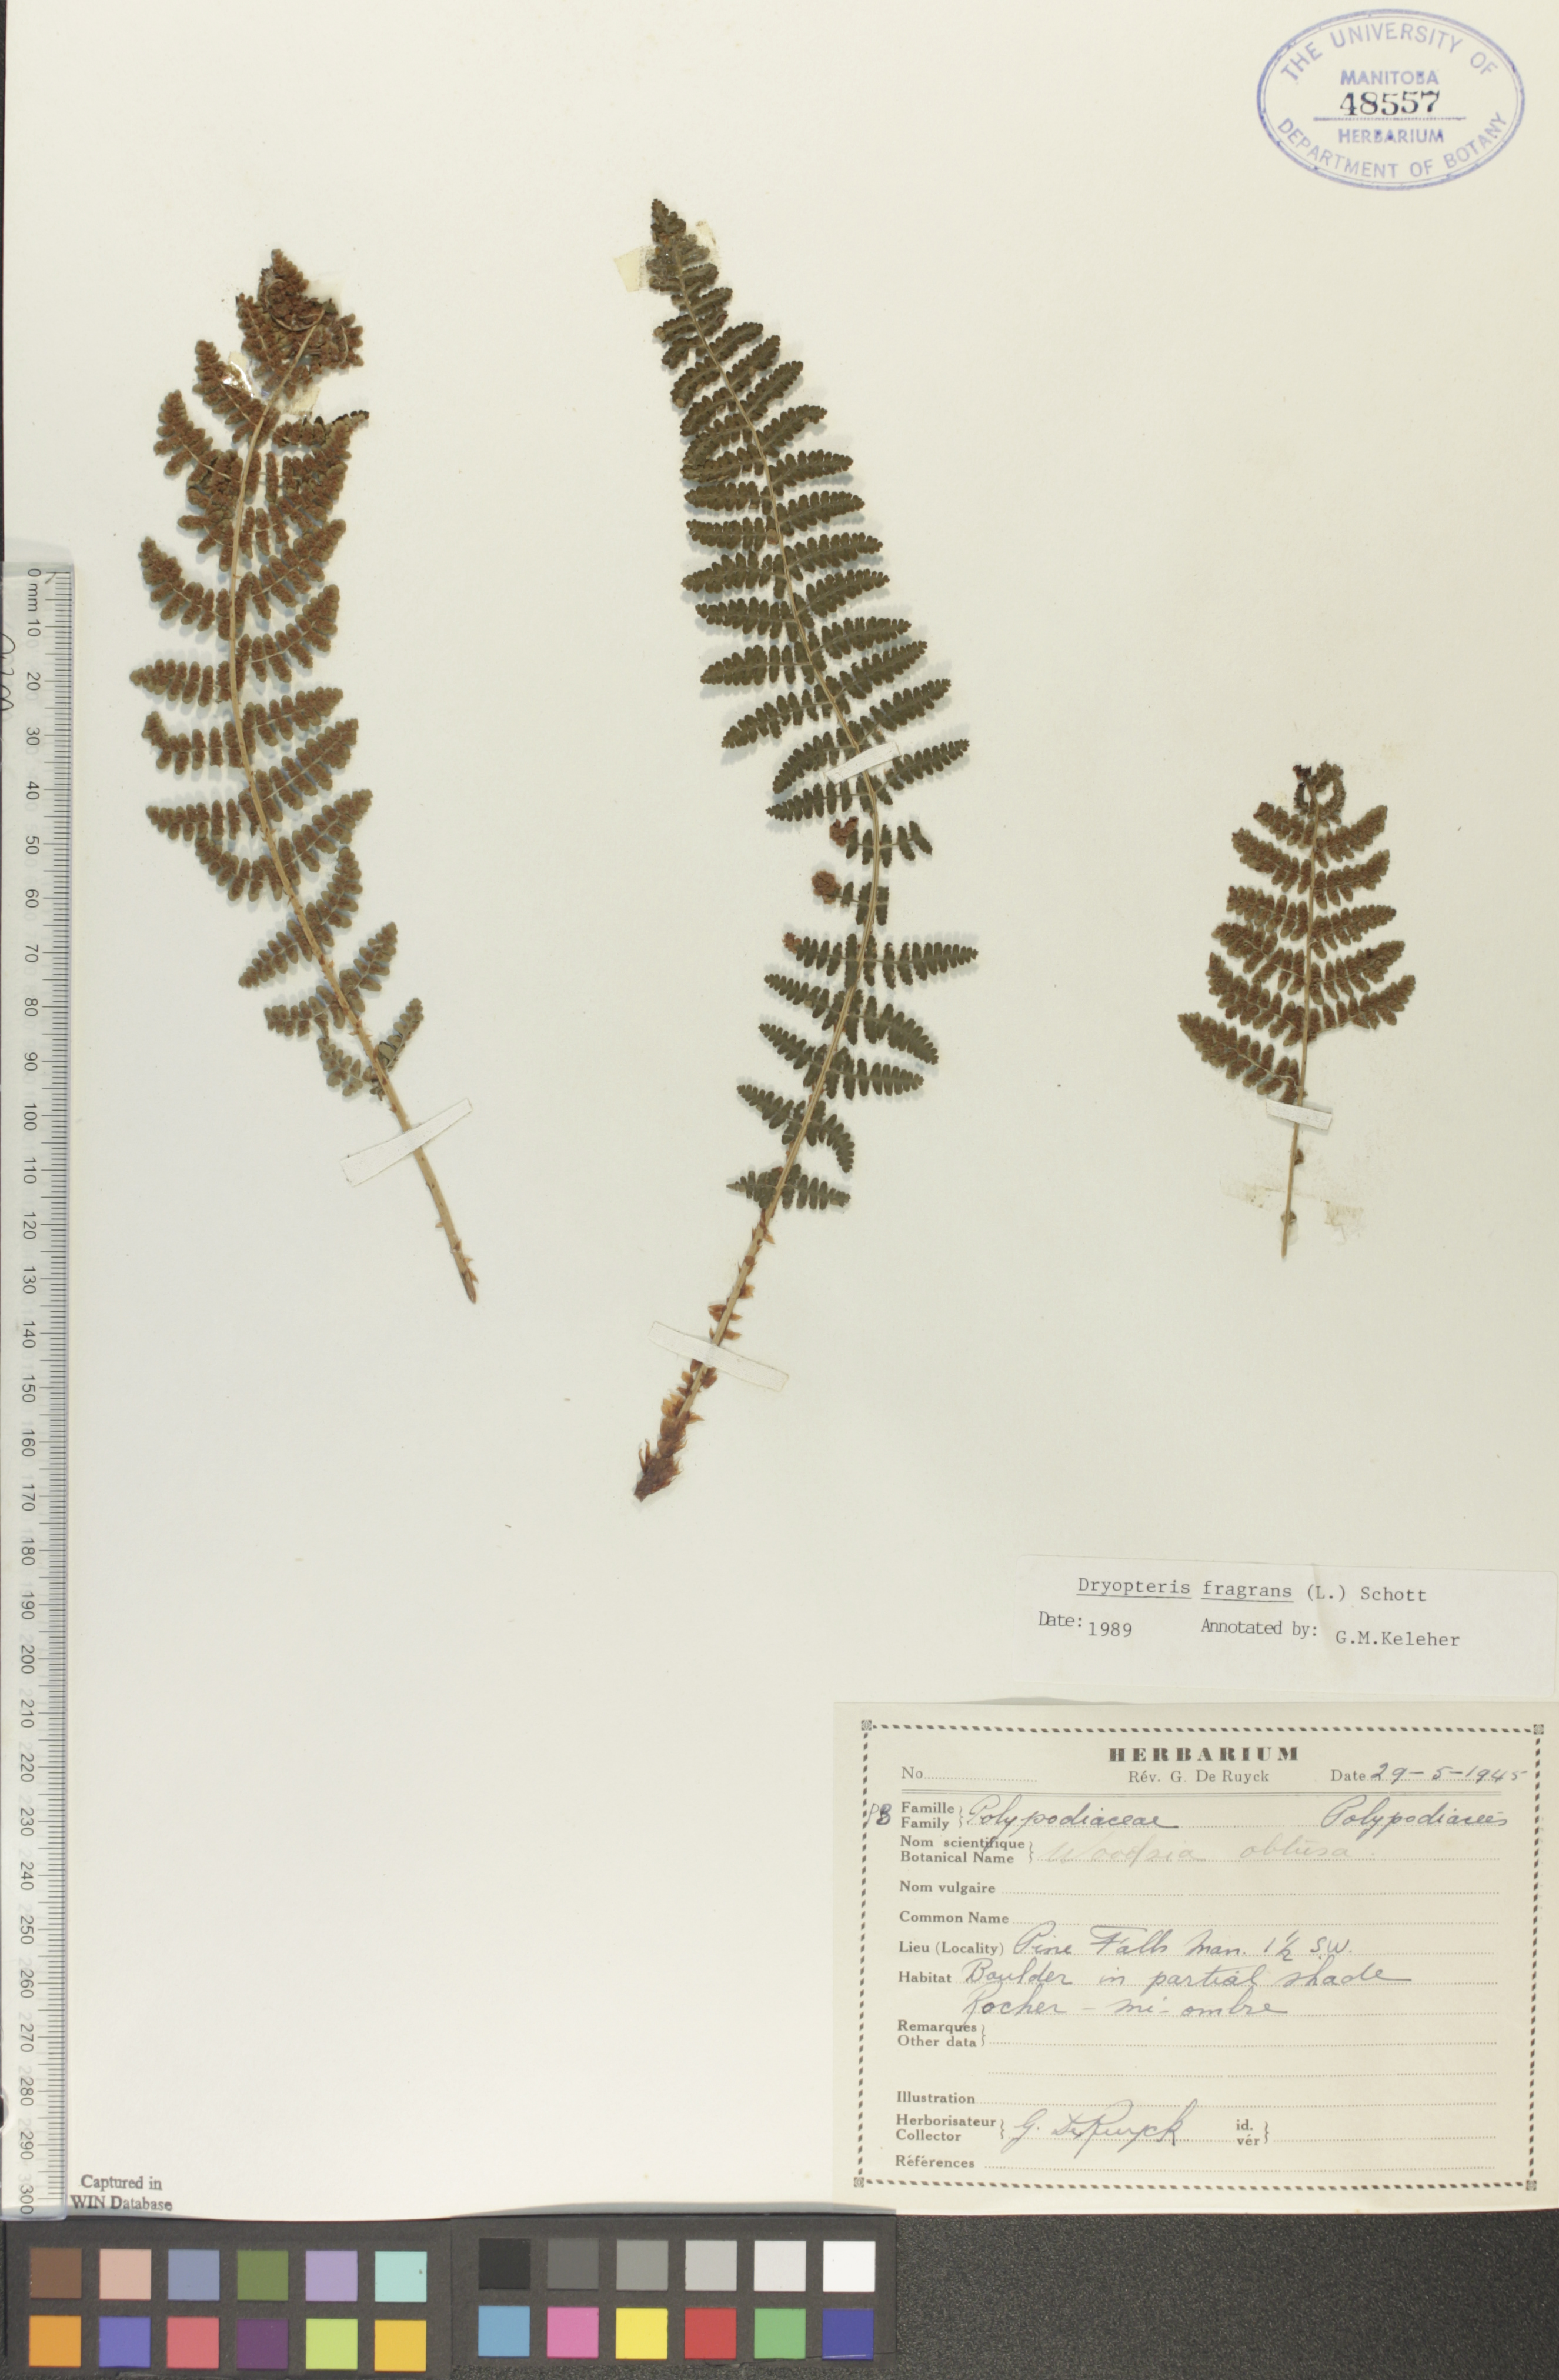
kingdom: Plantae
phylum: Tracheophyta
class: Polypodiopsida
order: Polypodiales
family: Dryopteridaceae
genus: Dryopteris
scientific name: Dryopteris fragrans
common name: Fragrant wood fern
